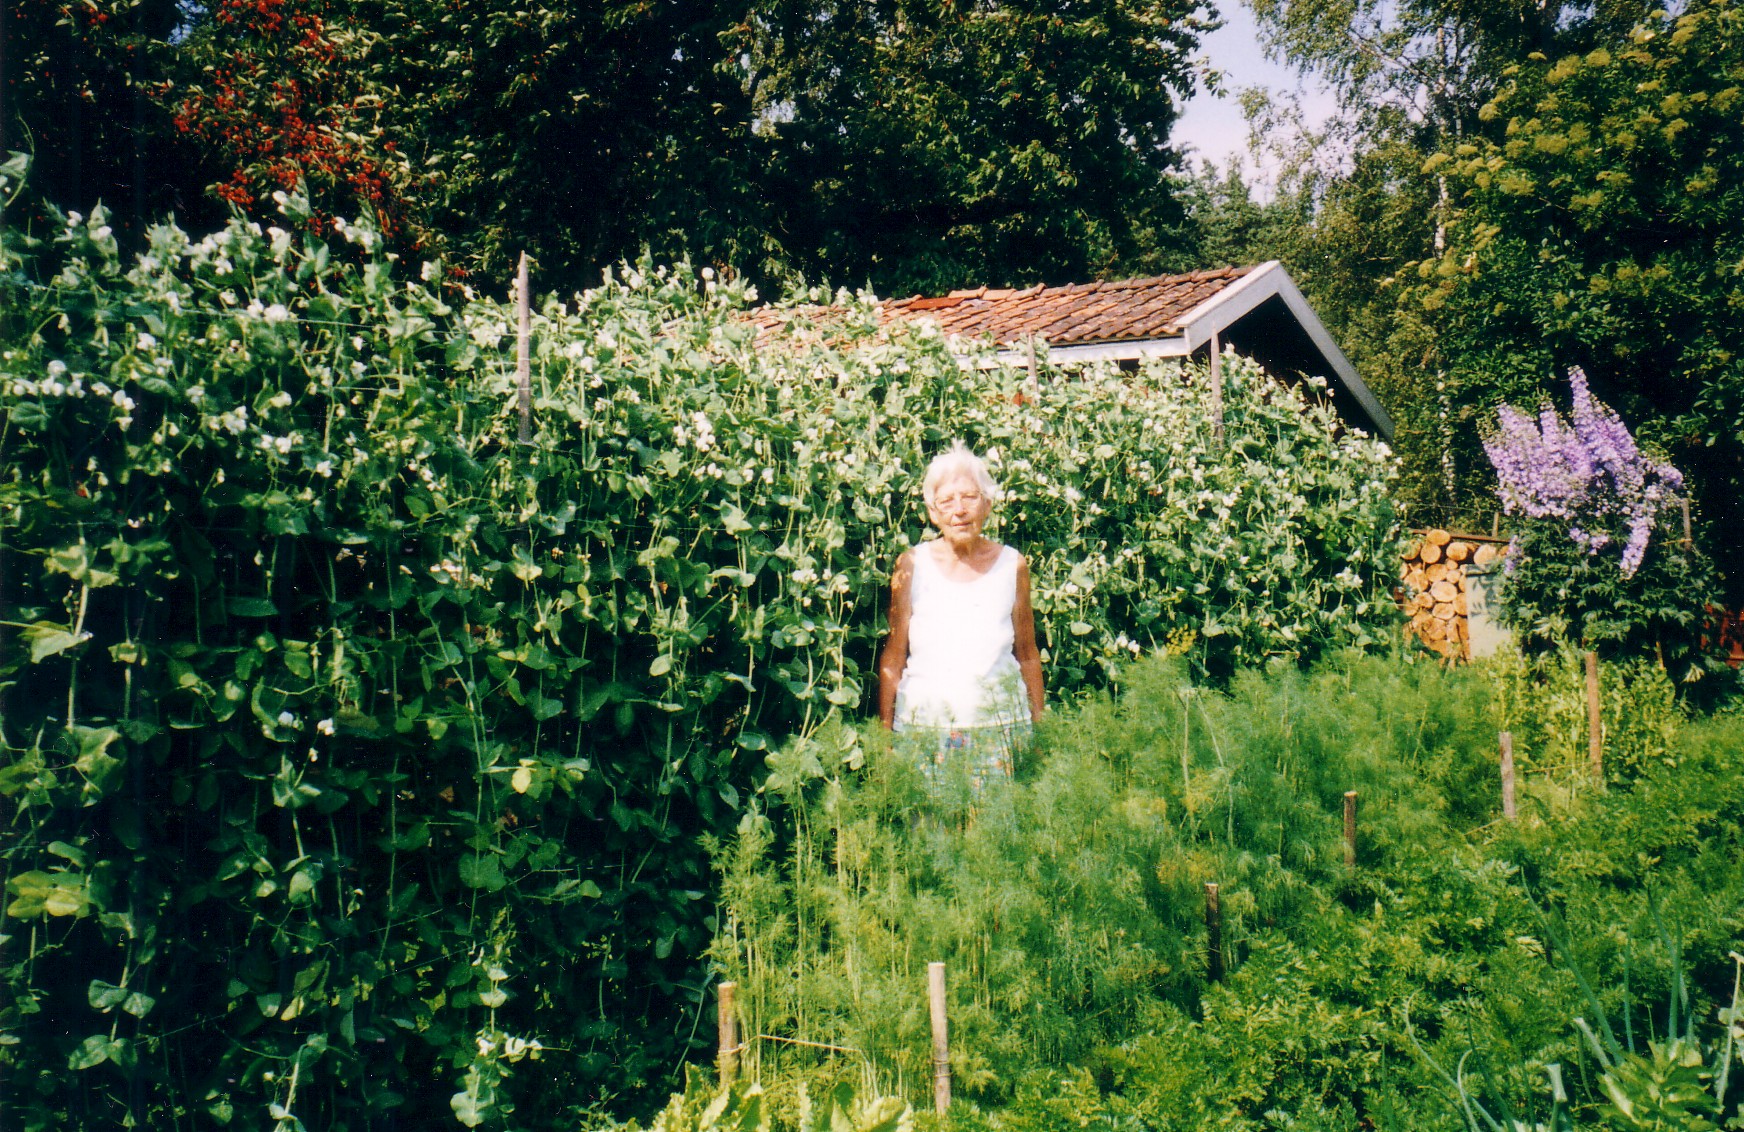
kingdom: Plantae
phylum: Tracheophyta
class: Magnoliopsida
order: Fabales
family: Fabaceae
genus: Lathyrus
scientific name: Lathyrus oleraceus
